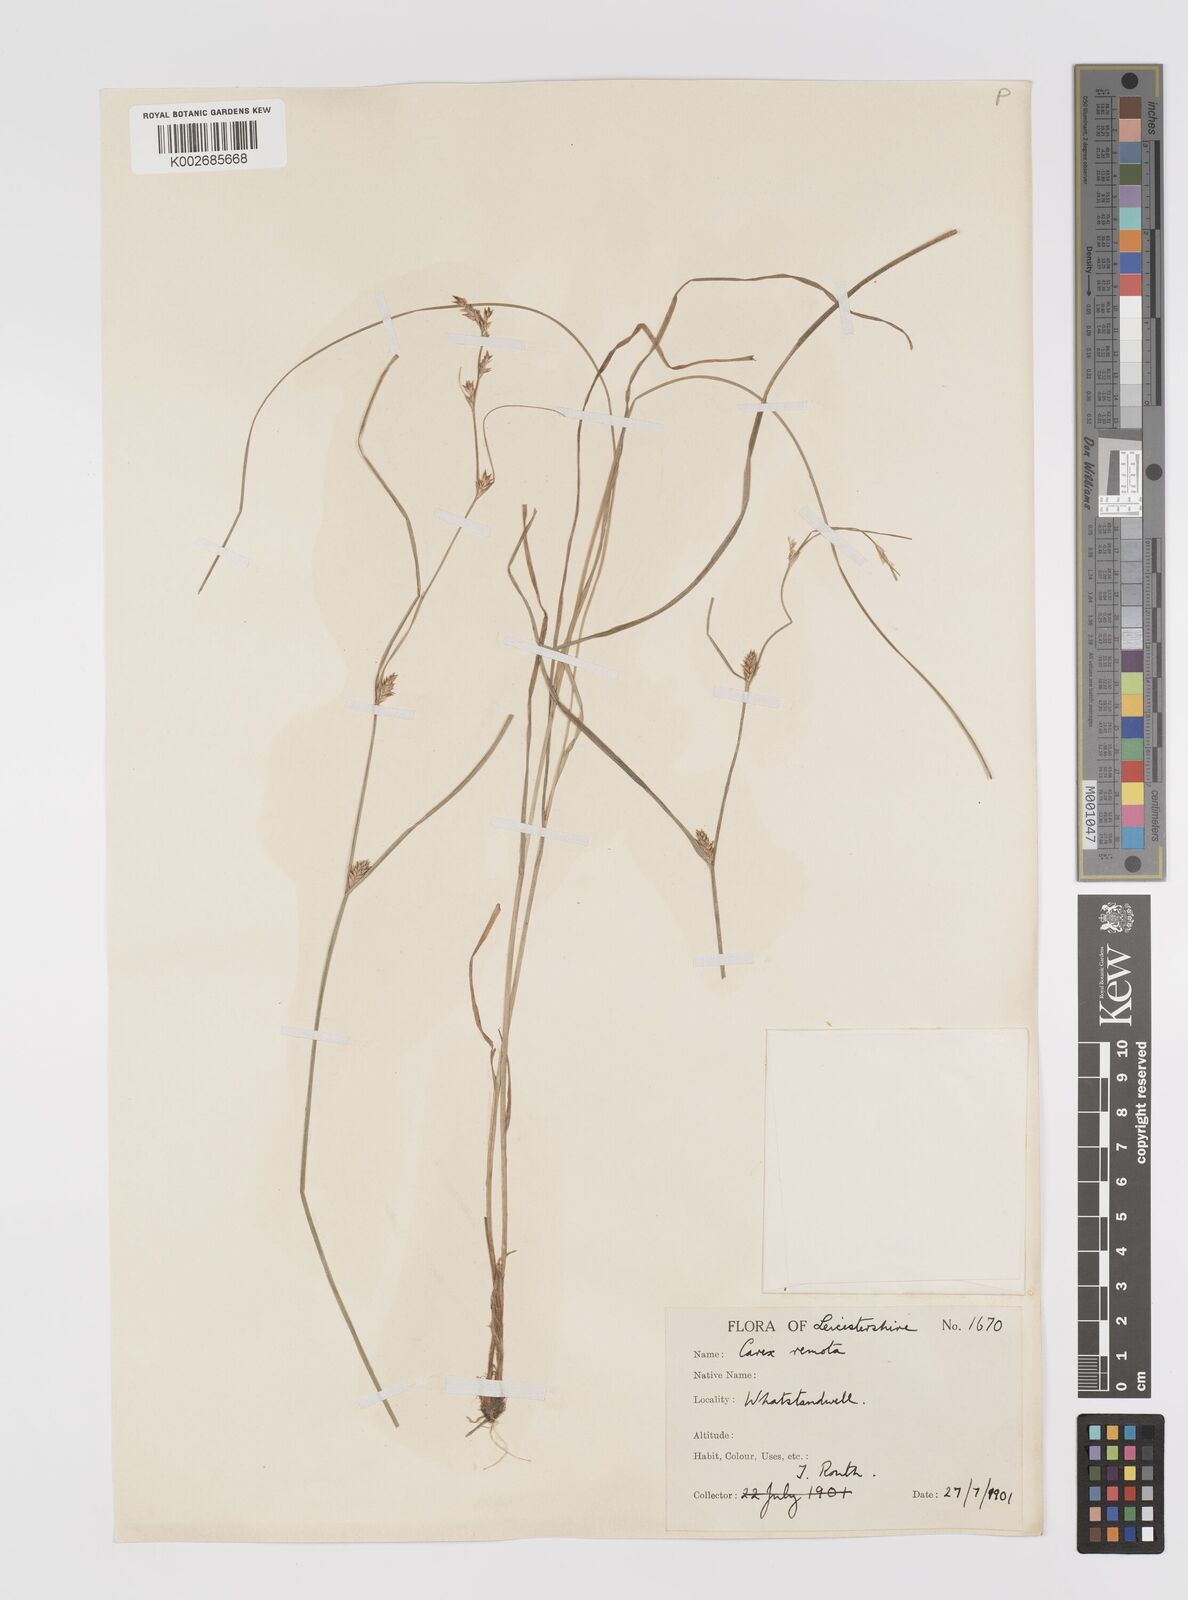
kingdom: Plantae
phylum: Tracheophyta
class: Liliopsida
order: Poales
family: Cyperaceae
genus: Carex
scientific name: Carex remota
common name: Remote sedge
